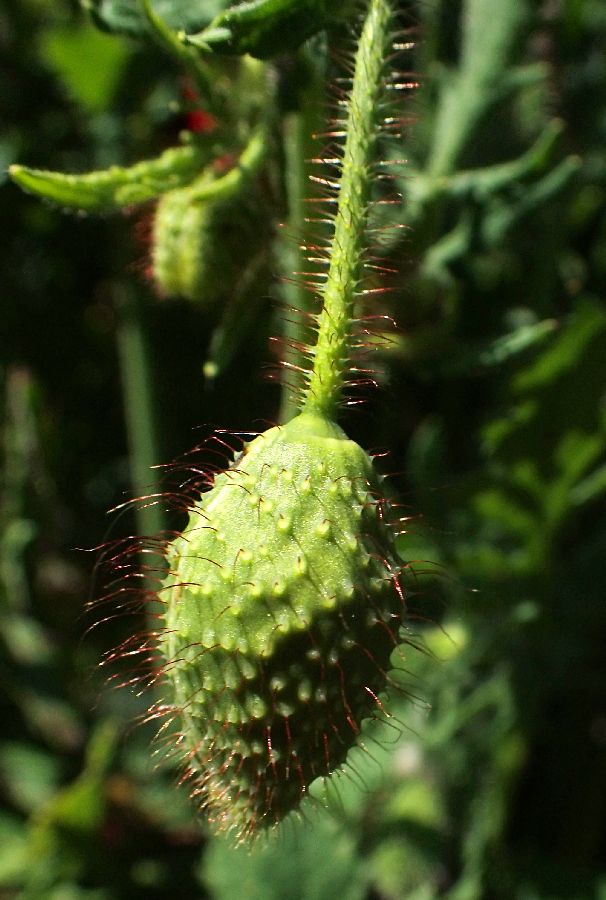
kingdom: Plantae
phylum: Tracheophyta
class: Magnoliopsida
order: Ranunculales
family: Papaveraceae
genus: Papaver
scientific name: Papaver rhoeas
